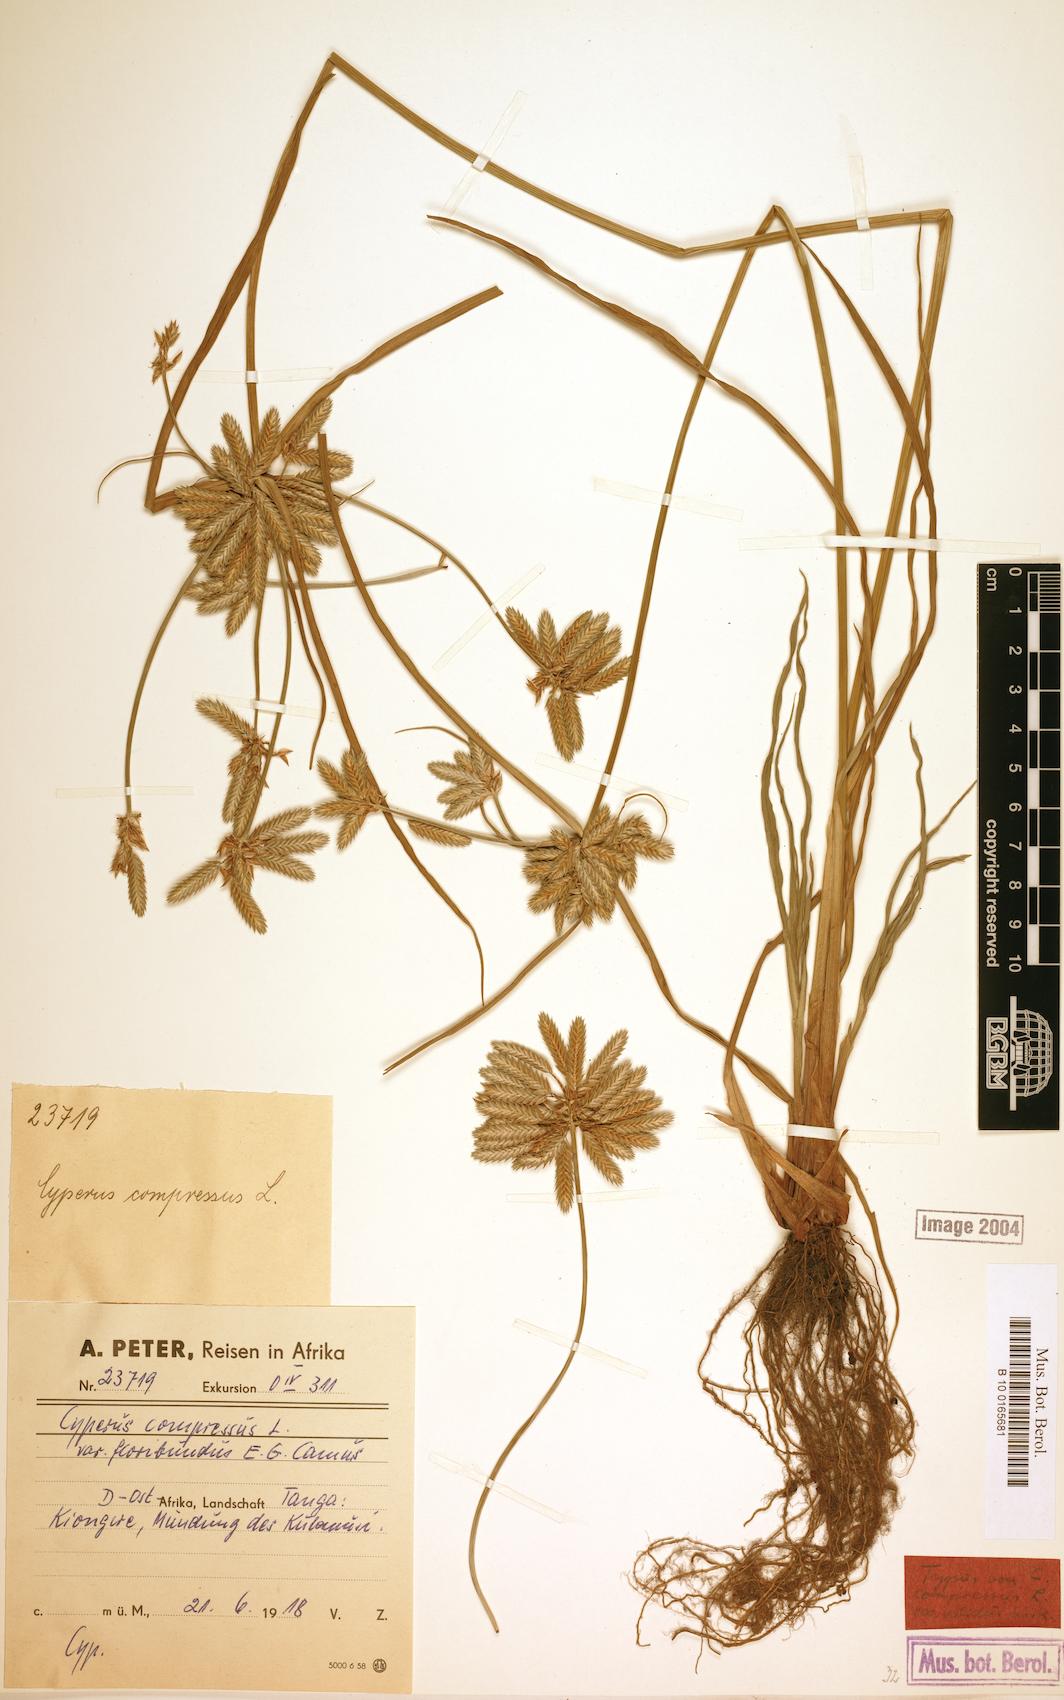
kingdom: Plantae
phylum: Tracheophyta
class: Liliopsida
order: Poales
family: Cyperaceae
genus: Cyperus
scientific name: Cyperus compressus
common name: Poorland flatsedge
